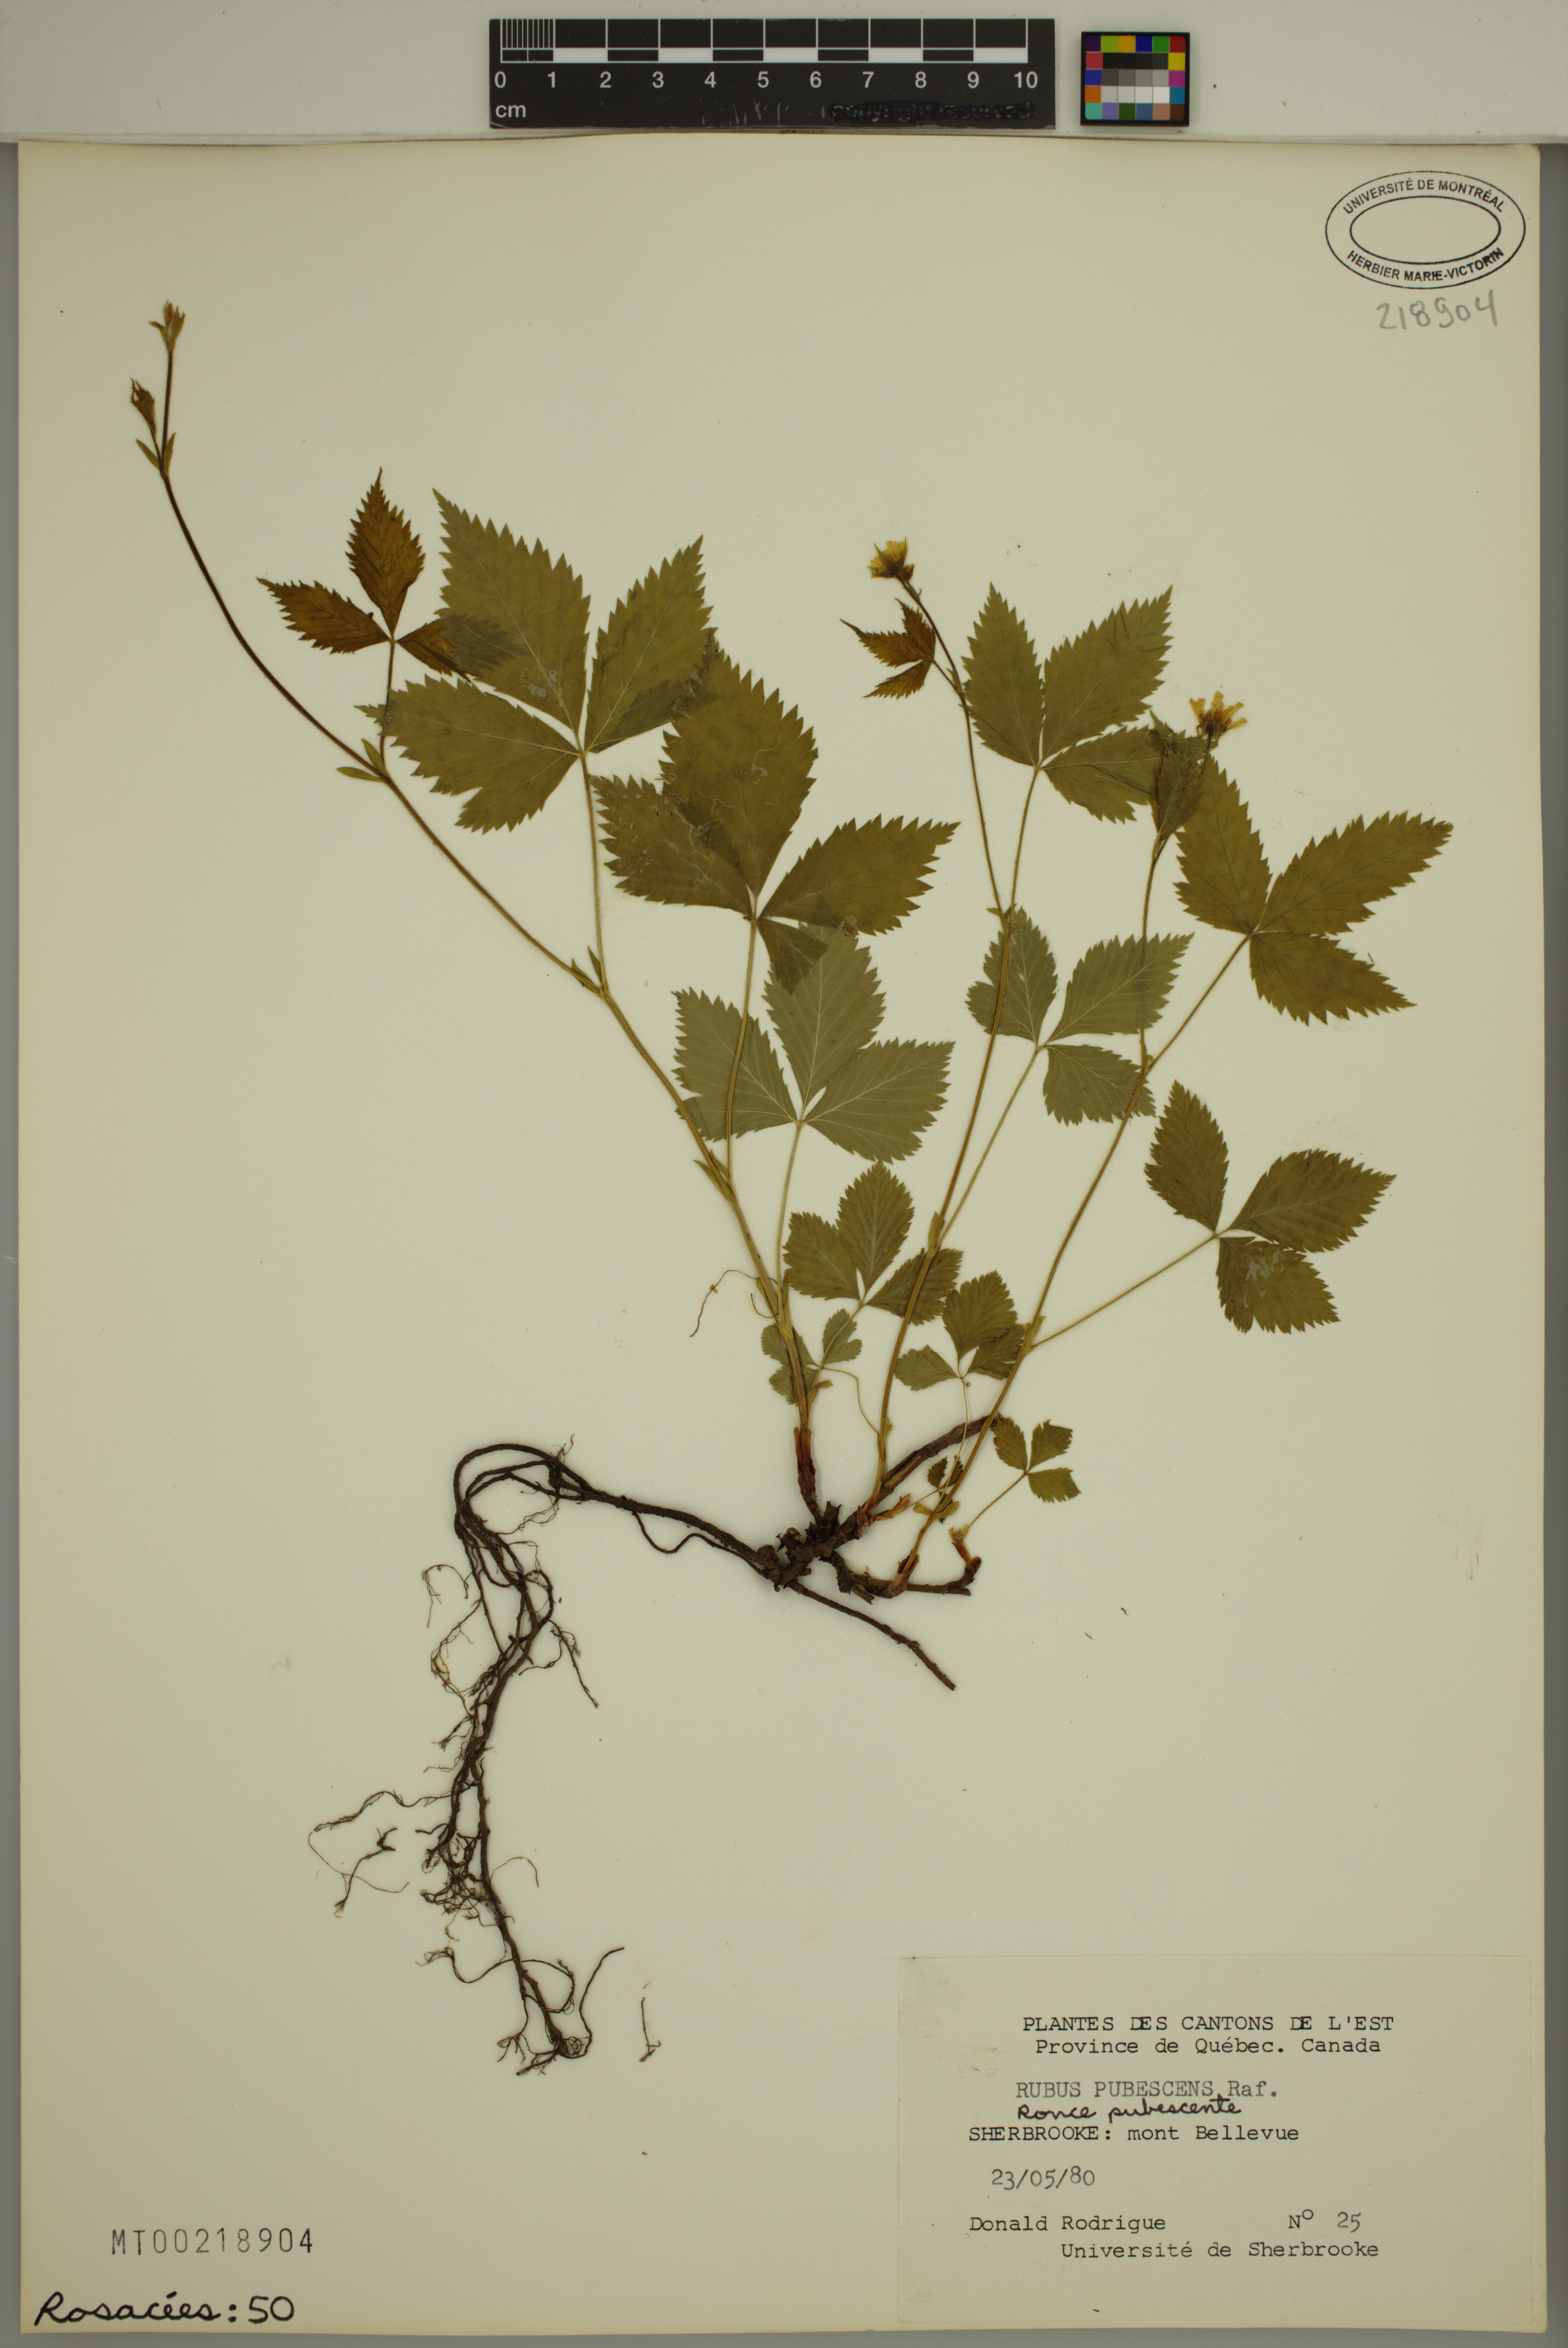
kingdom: Plantae
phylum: Tracheophyta
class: Magnoliopsida
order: Rosales
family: Rosaceae
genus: Rubus
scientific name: Rubus pubescens
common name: Dwarf raspberry
